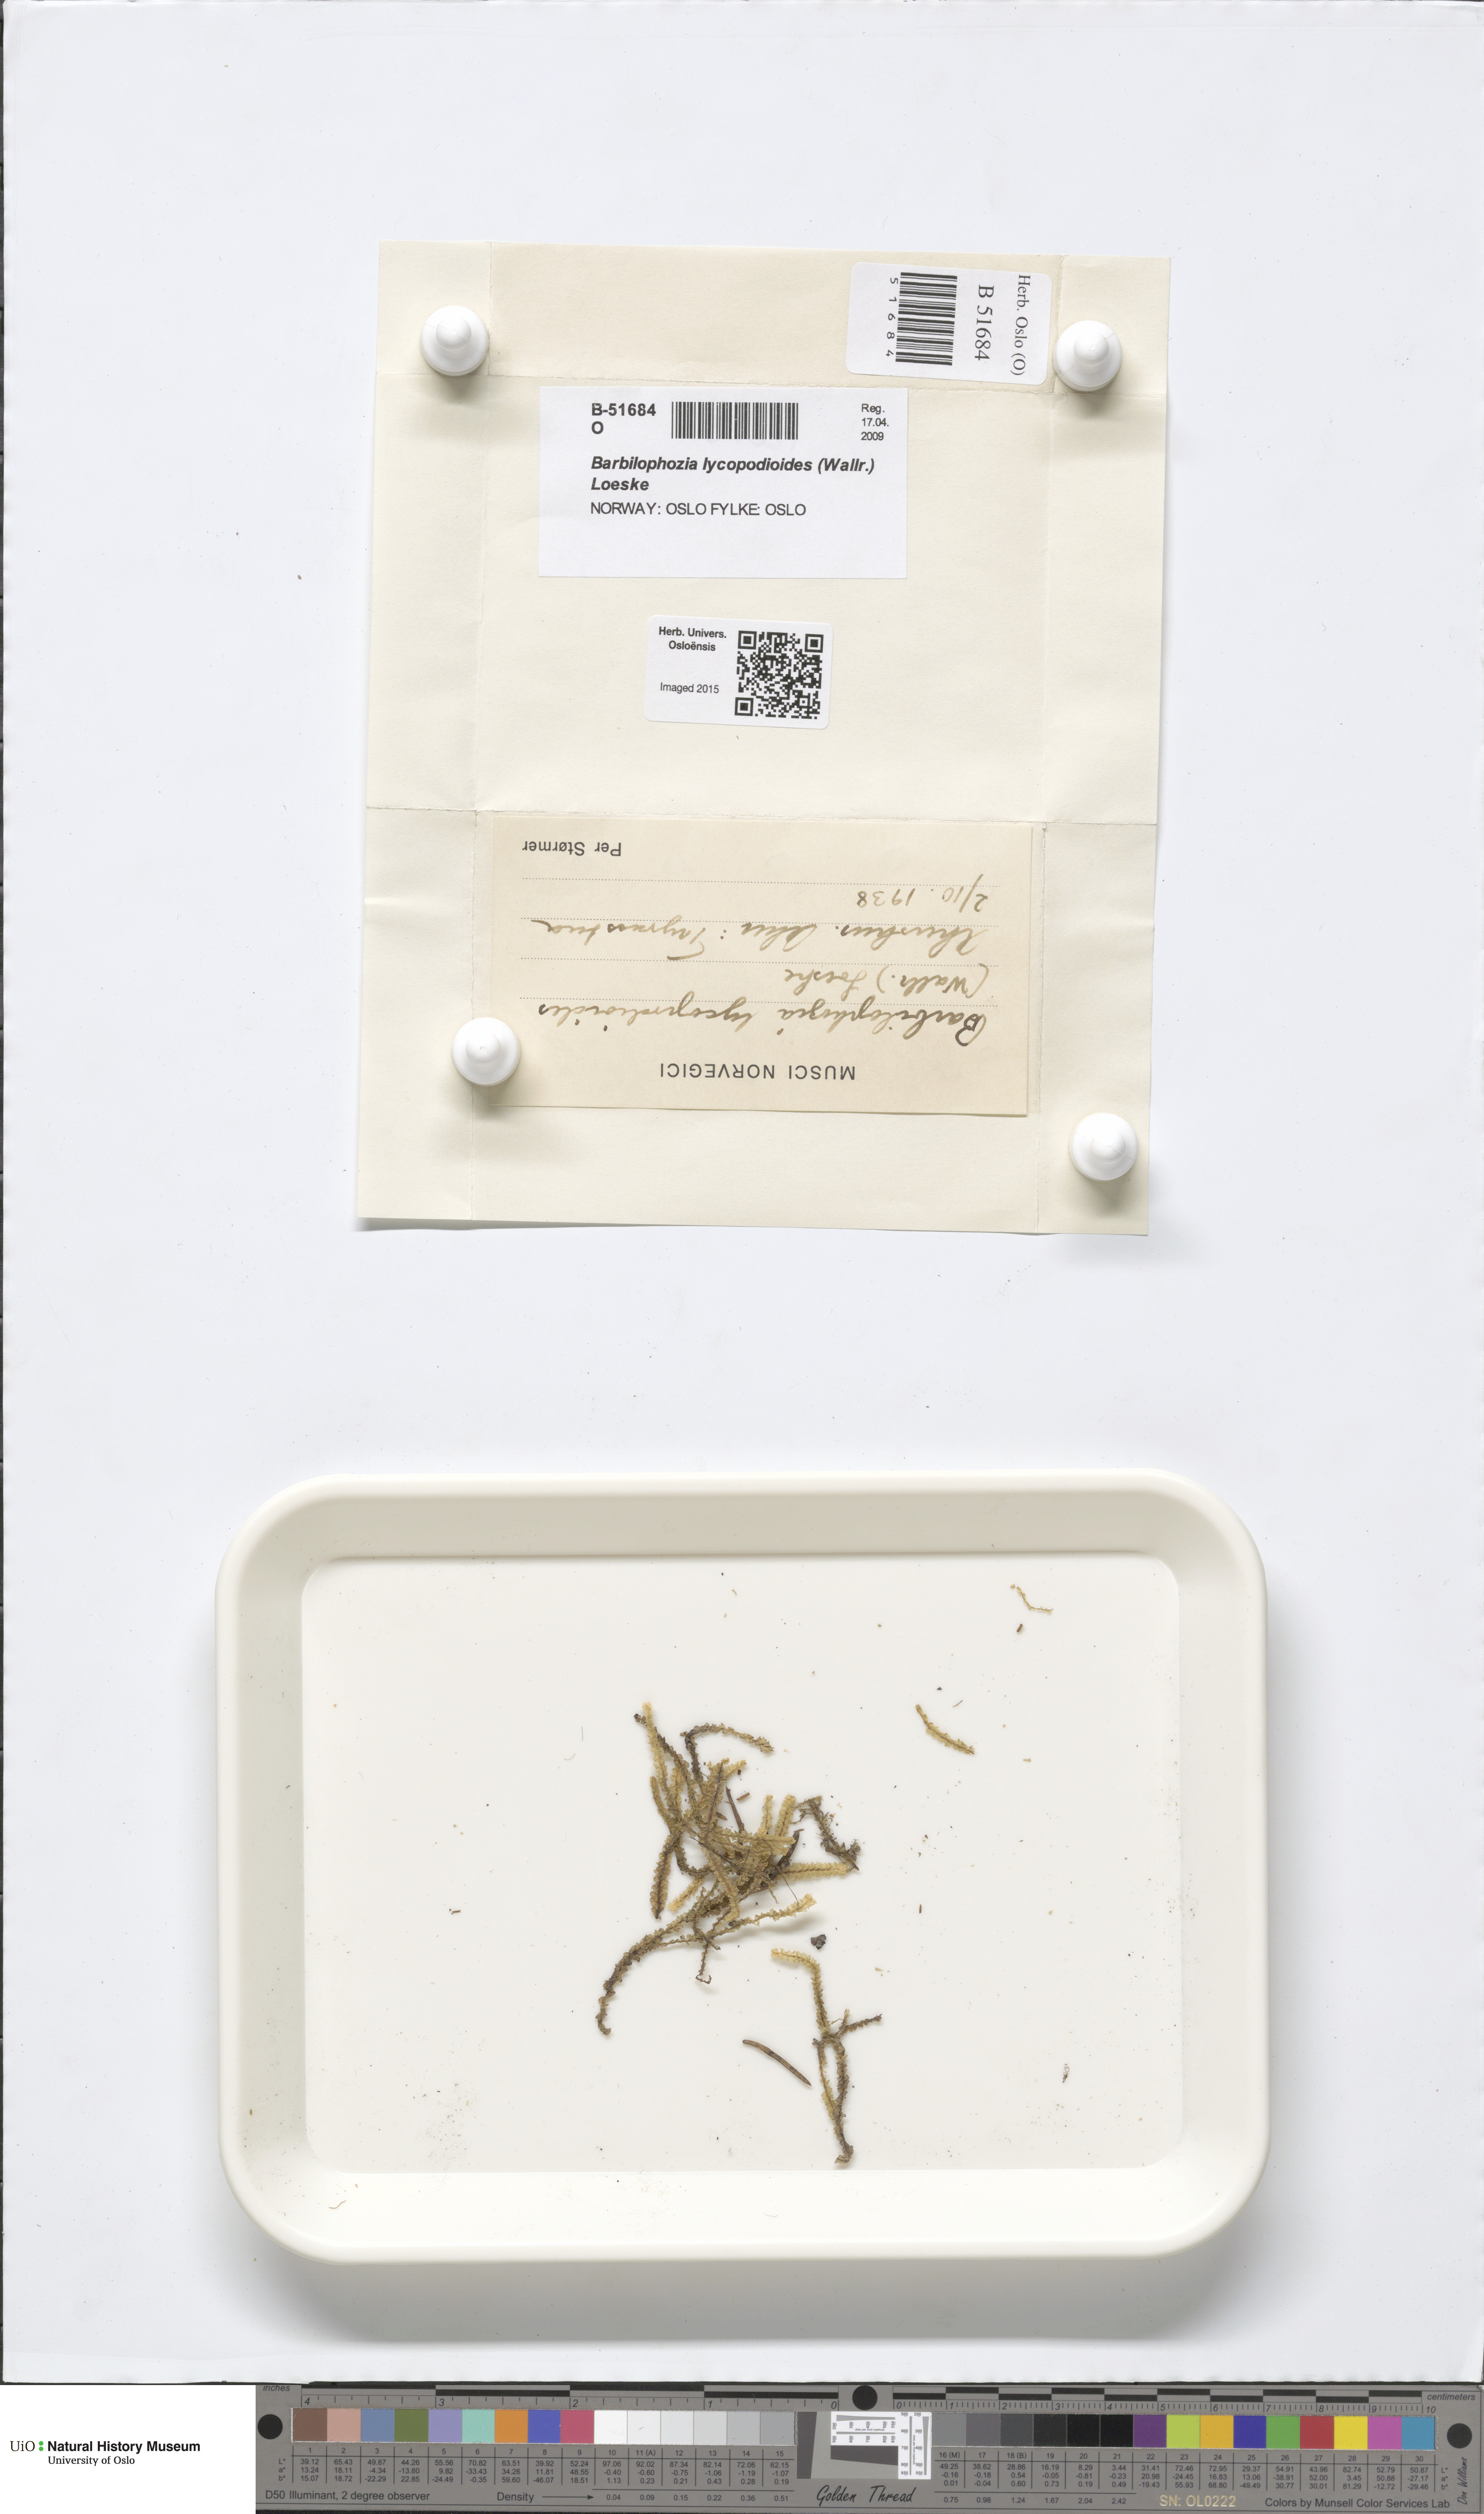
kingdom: Plantae
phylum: Marchantiophyta
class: Jungermanniopsida
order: Jungermanniales
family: Anastrophyllaceae
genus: Barbilophozia
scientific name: Barbilophozia lycopodioides
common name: Greater pawwort
